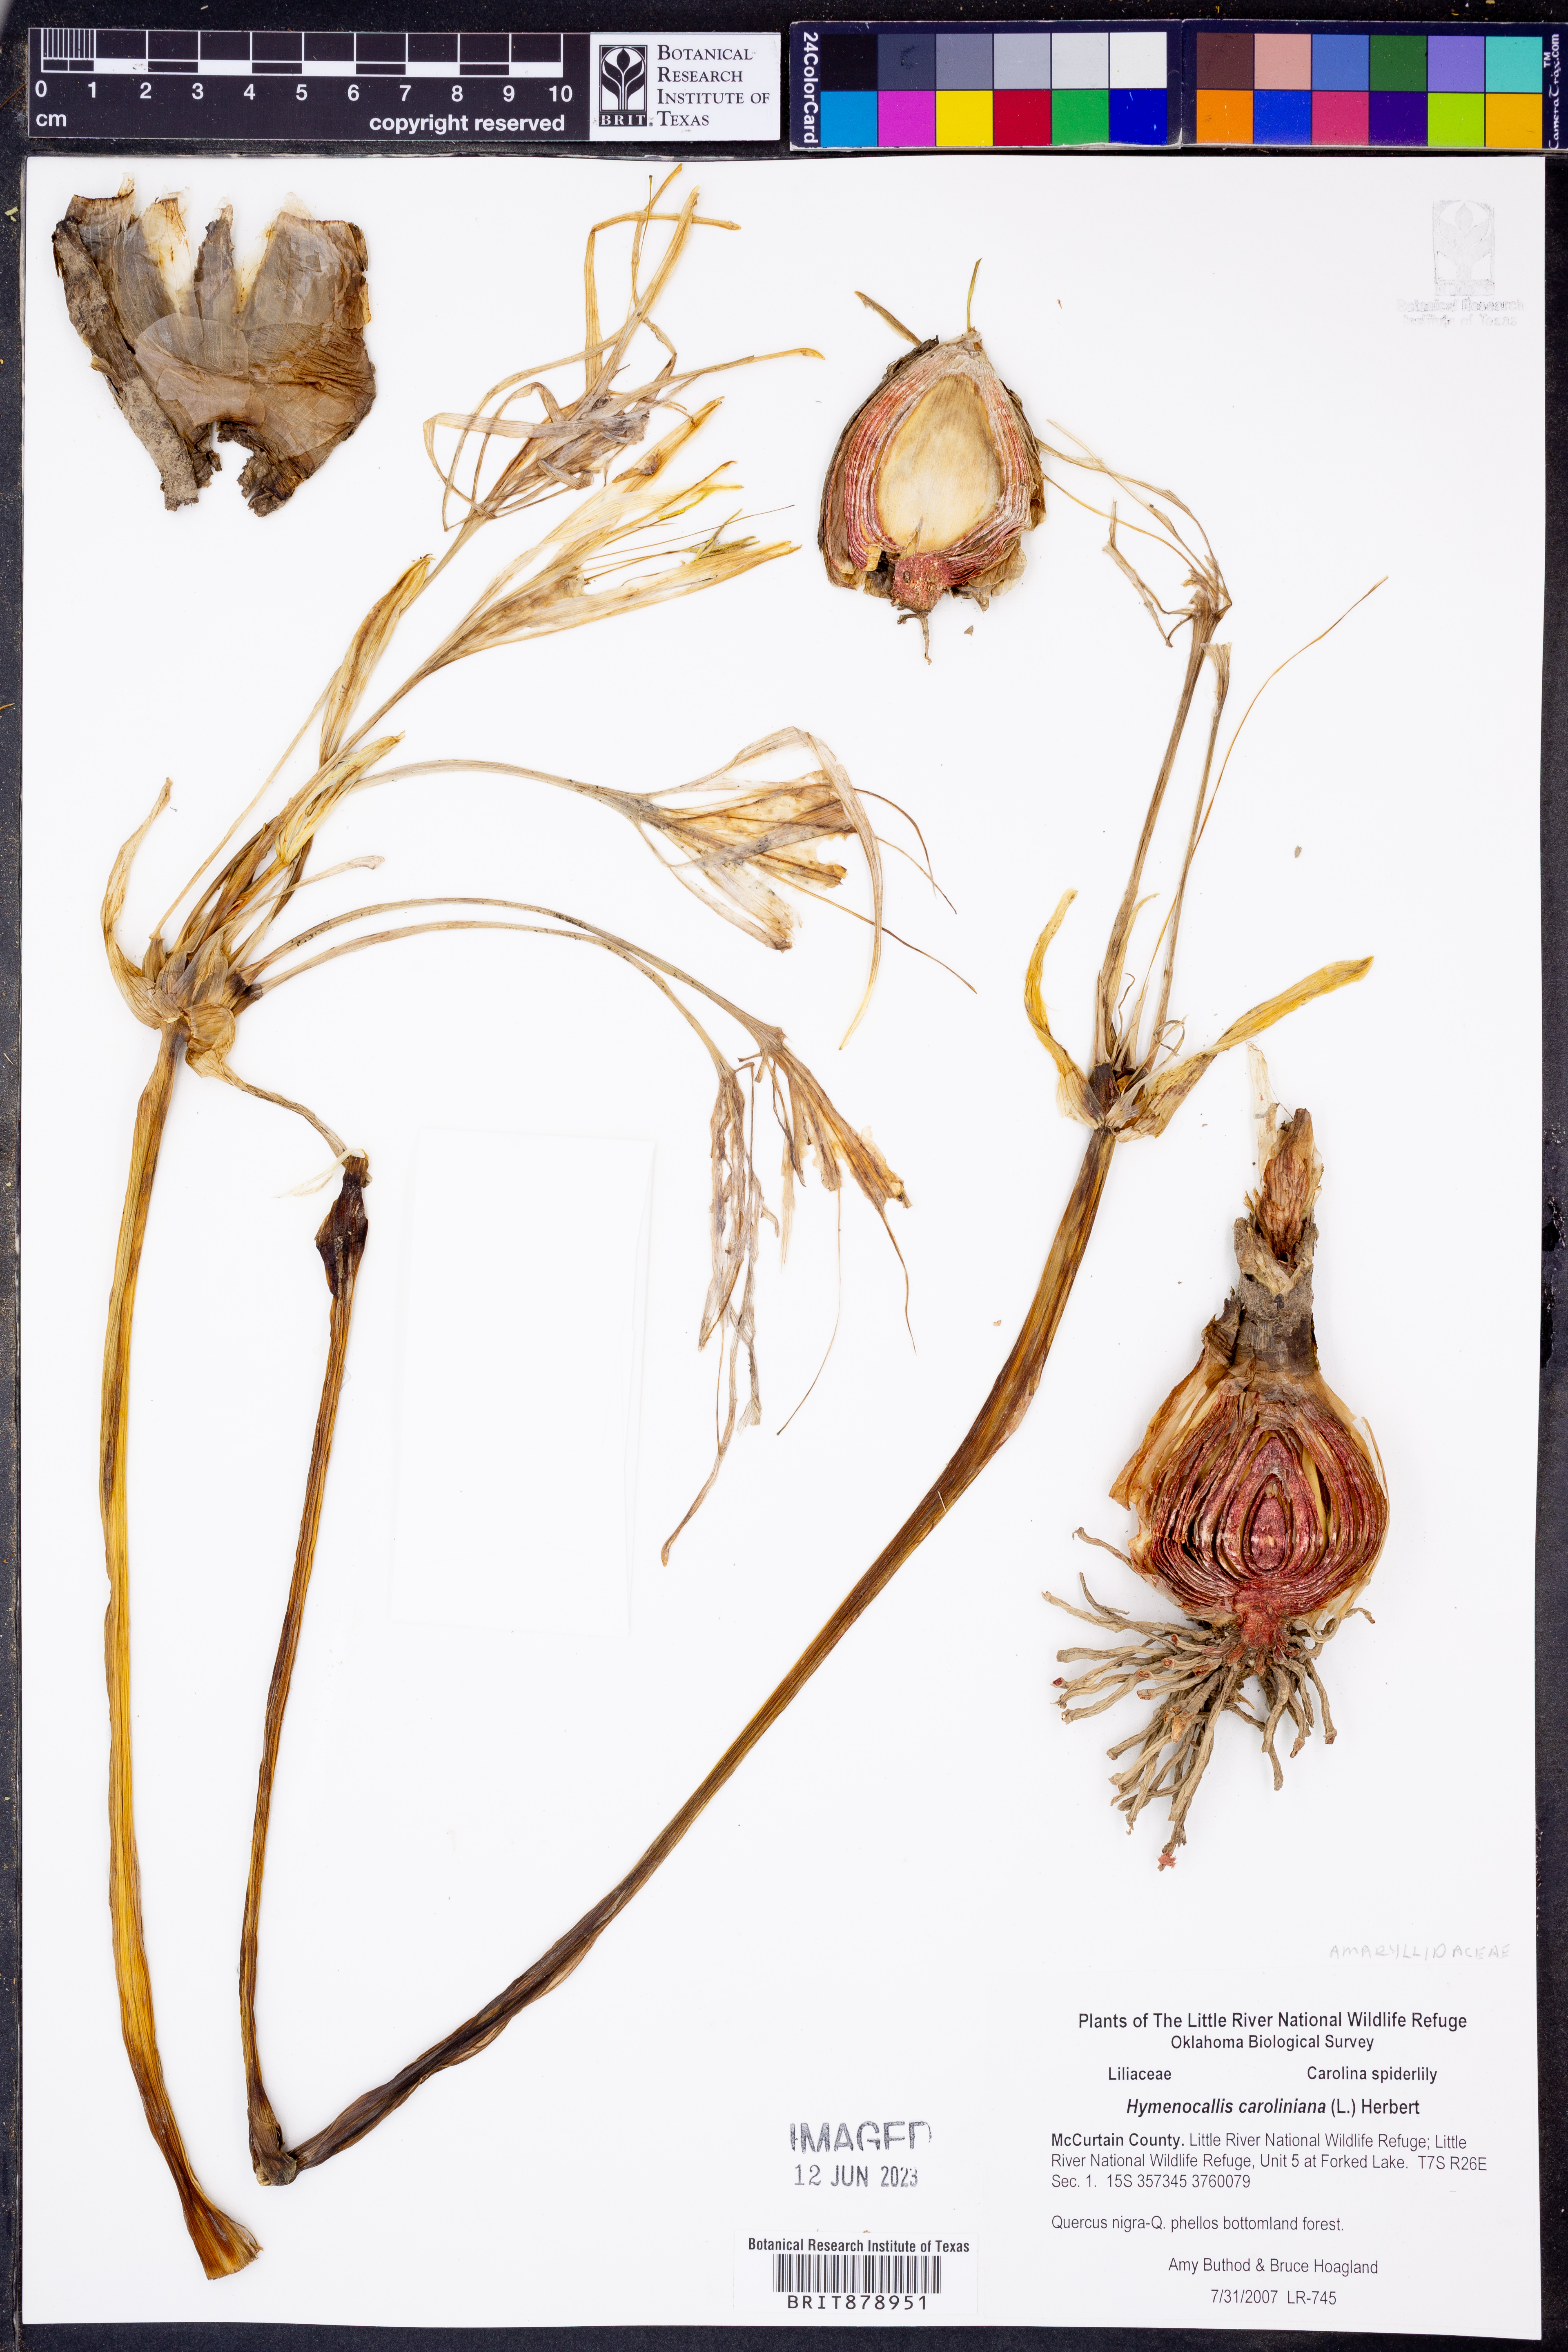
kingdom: Plantae
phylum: Tracheophyta
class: Liliopsida
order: Asparagales
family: Amaryllidaceae
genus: Pancratium
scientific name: Pancratium maritimum
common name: Sea-daffodil
